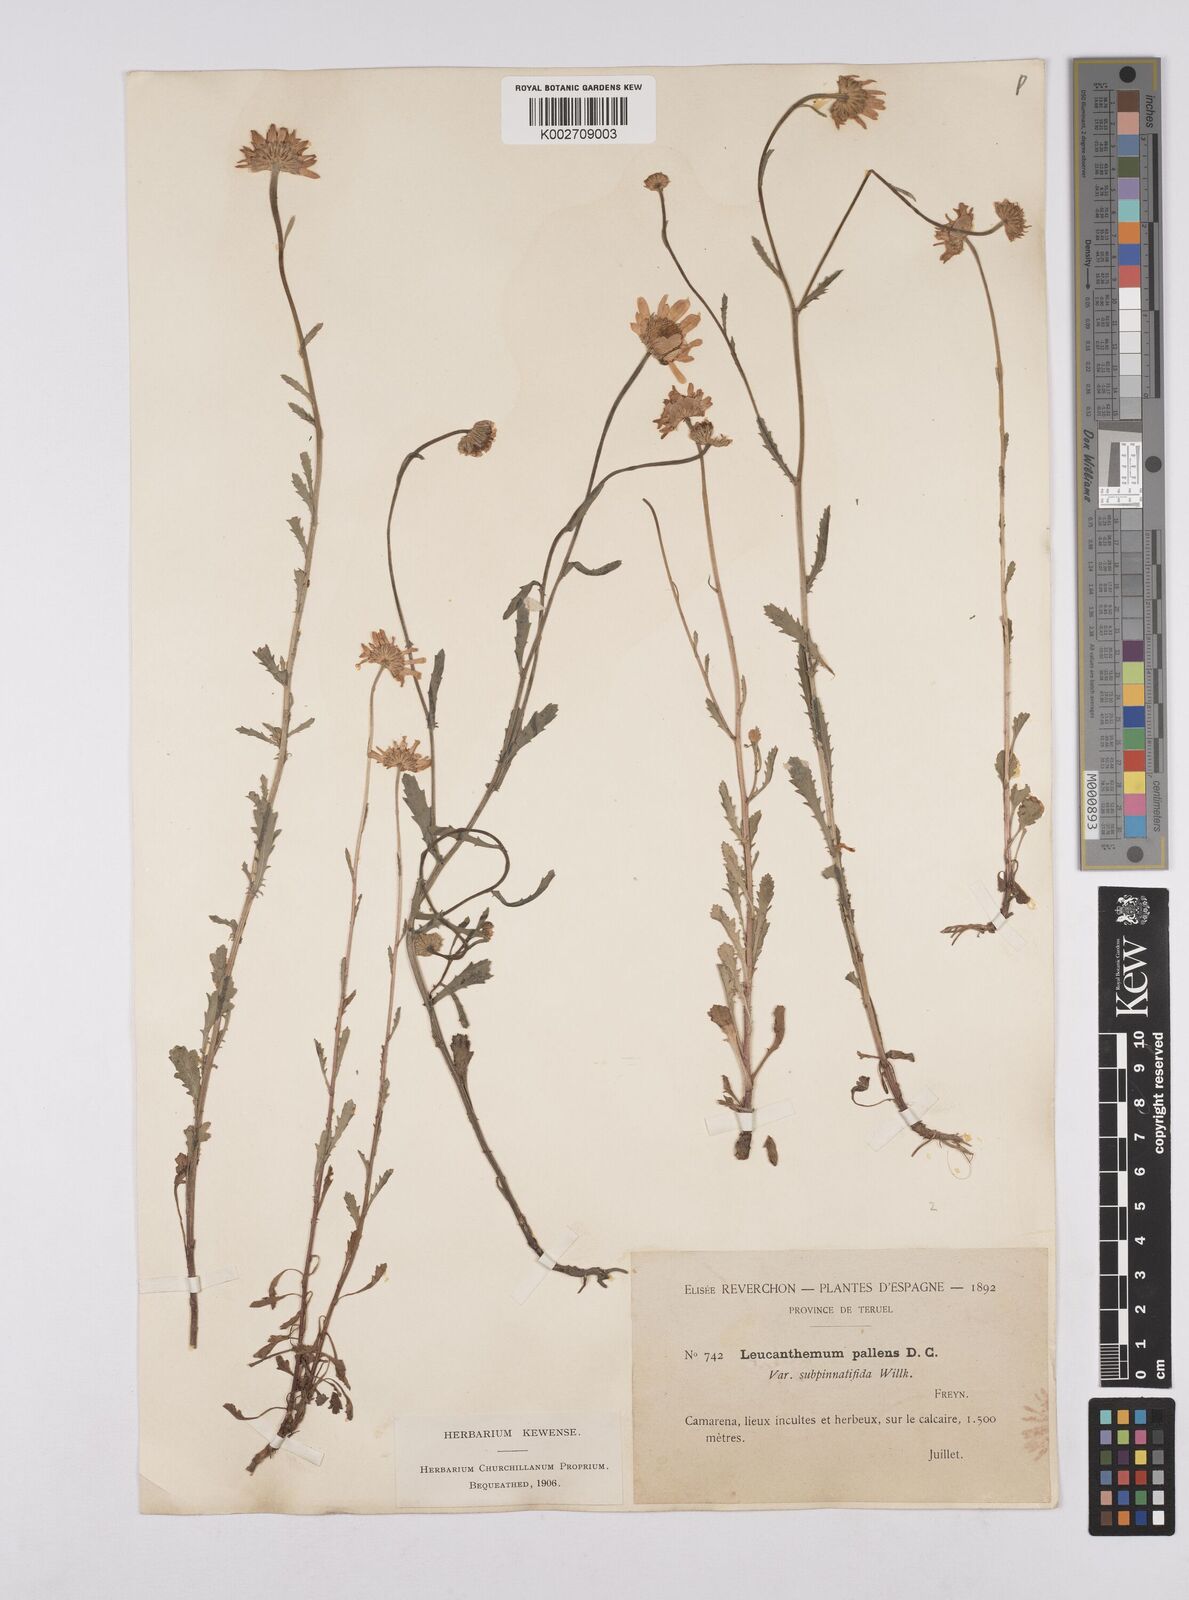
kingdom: Plantae
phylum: Tracheophyta
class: Magnoliopsida
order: Asterales
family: Asteraceae
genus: Leucanthemum
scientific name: Leucanthemum pallens
